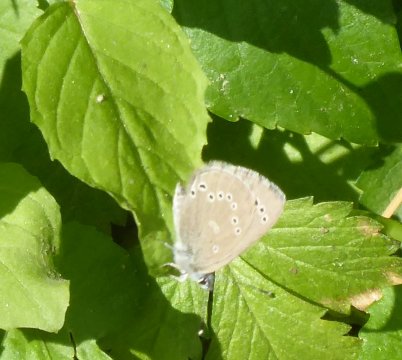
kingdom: Animalia
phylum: Arthropoda
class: Insecta
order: Lepidoptera
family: Lycaenidae
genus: Glaucopsyche
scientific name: Glaucopsyche lygdamus
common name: Silvery Blue
